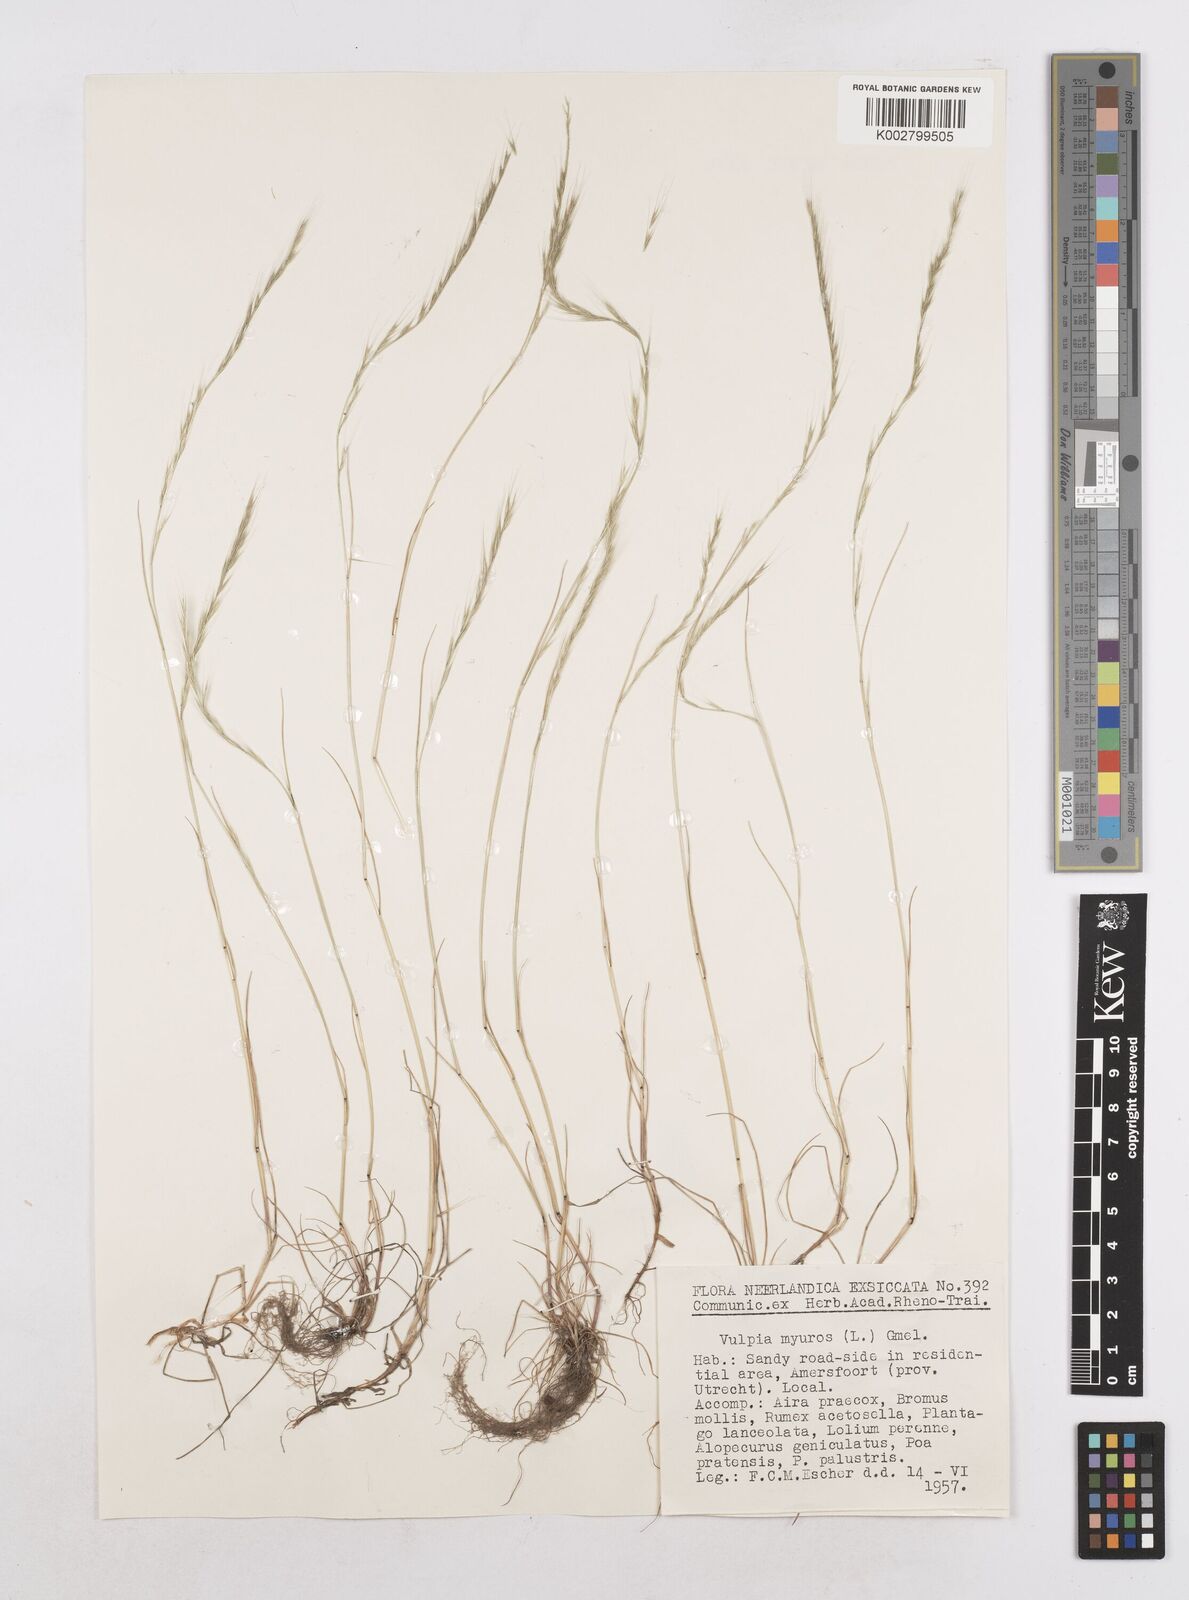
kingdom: Plantae
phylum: Tracheophyta
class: Liliopsida
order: Poales
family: Poaceae
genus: Festuca
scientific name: Festuca myuros
